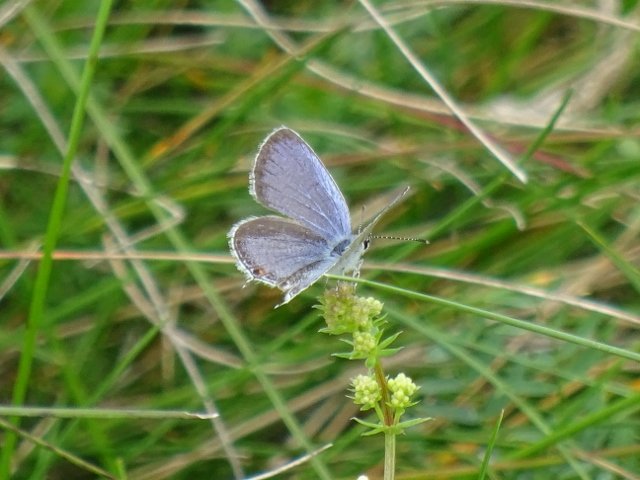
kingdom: Animalia
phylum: Arthropoda
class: Insecta
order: Lepidoptera
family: Lycaenidae
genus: Elkalyce
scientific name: Elkalyce comyntas
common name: Eastern Tailed-Blue
